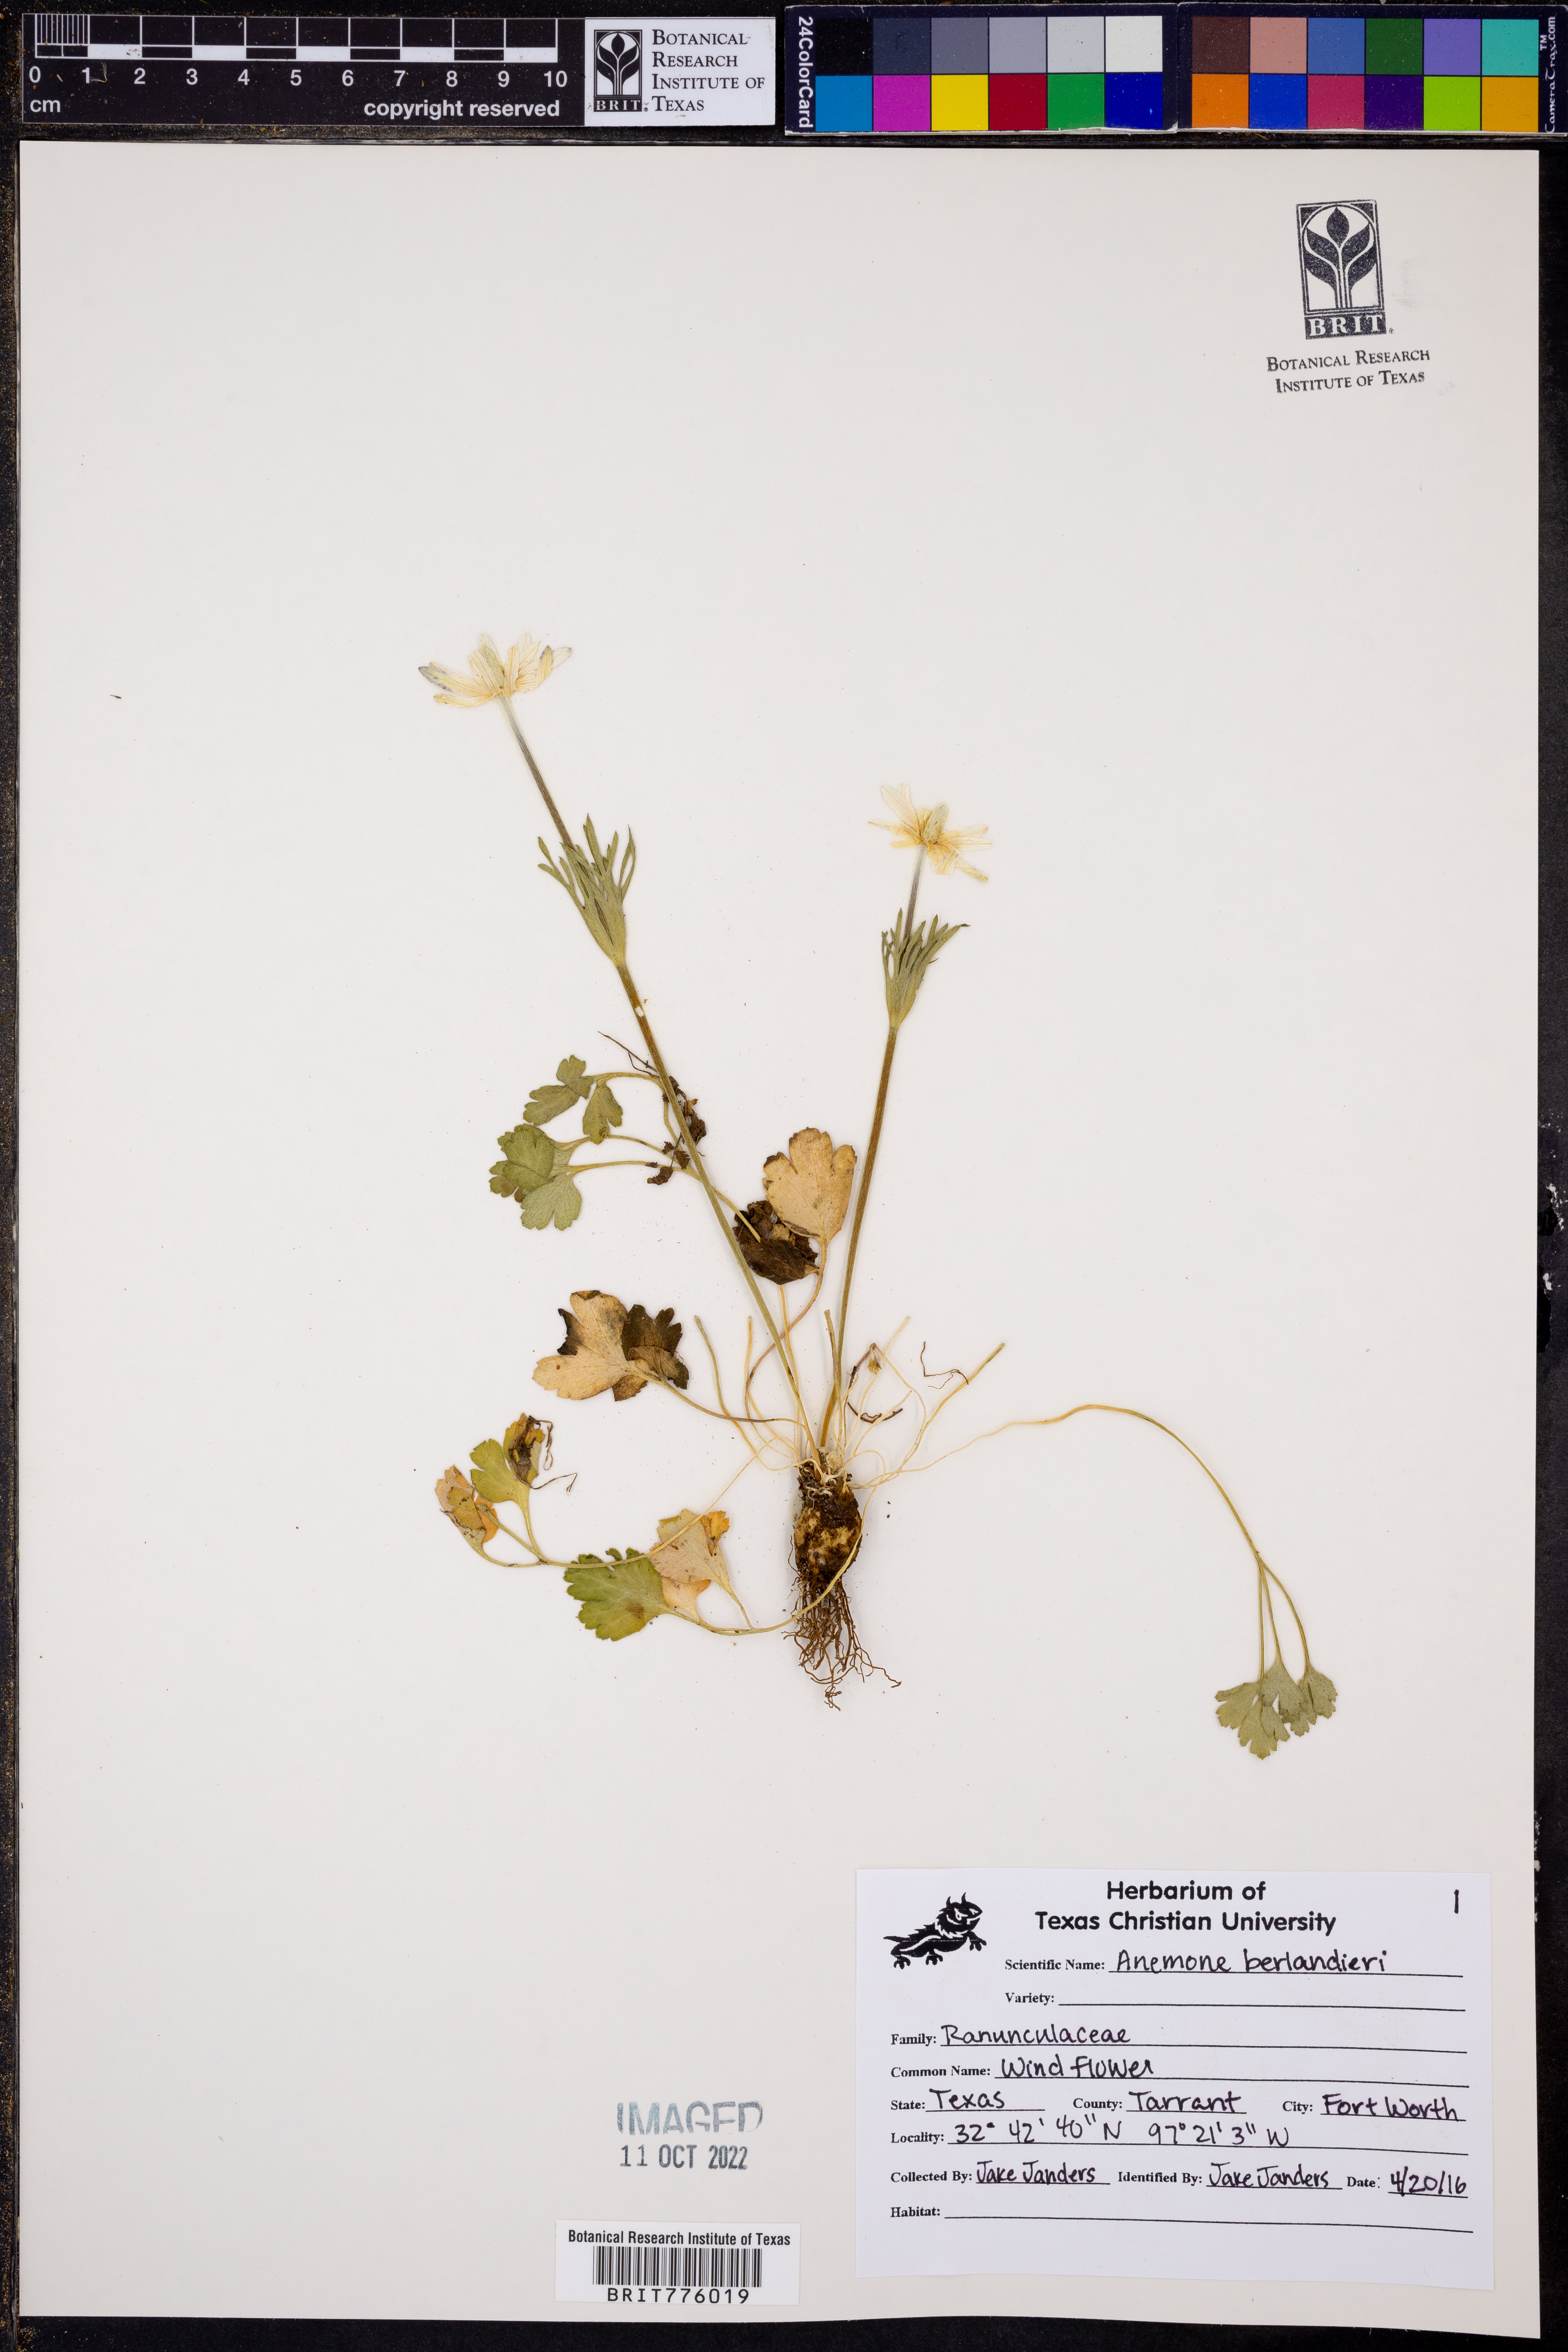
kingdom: Plantae
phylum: Tracheophyta
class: Magnoliopsida
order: Ranunculales
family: Ranunculaceae
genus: Anemone
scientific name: Anemone berlandieri
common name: Ten-petal anemone
